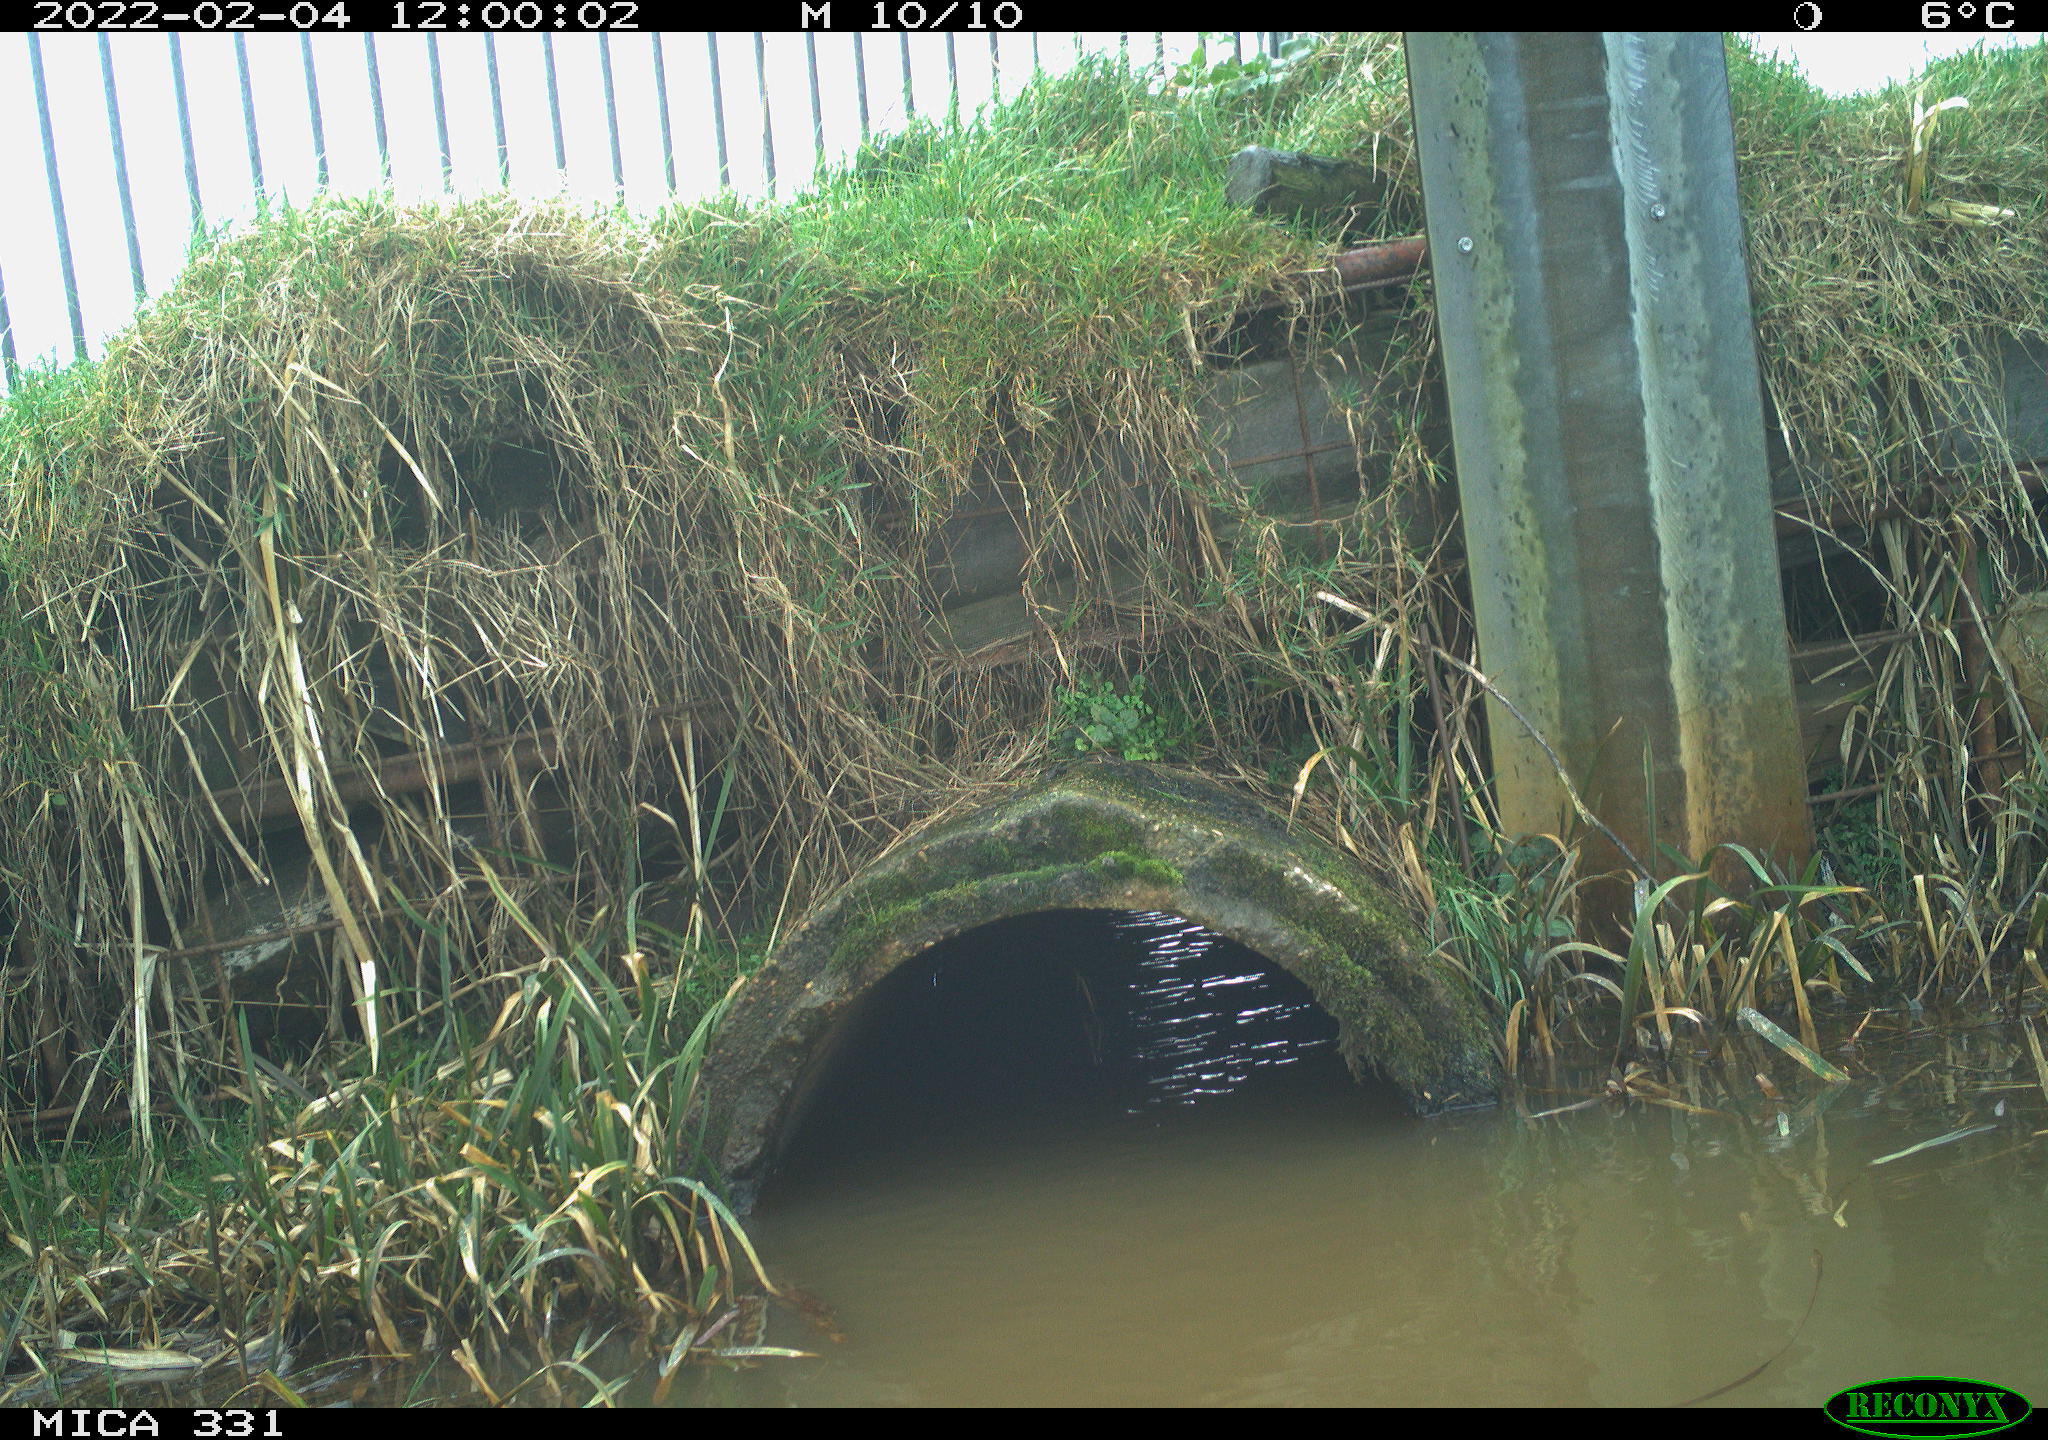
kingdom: Animalia
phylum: Chordata
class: Aves
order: Pelecaniformes
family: Ardeidae
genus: Ardea
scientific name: Ardea alba
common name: Great egret
